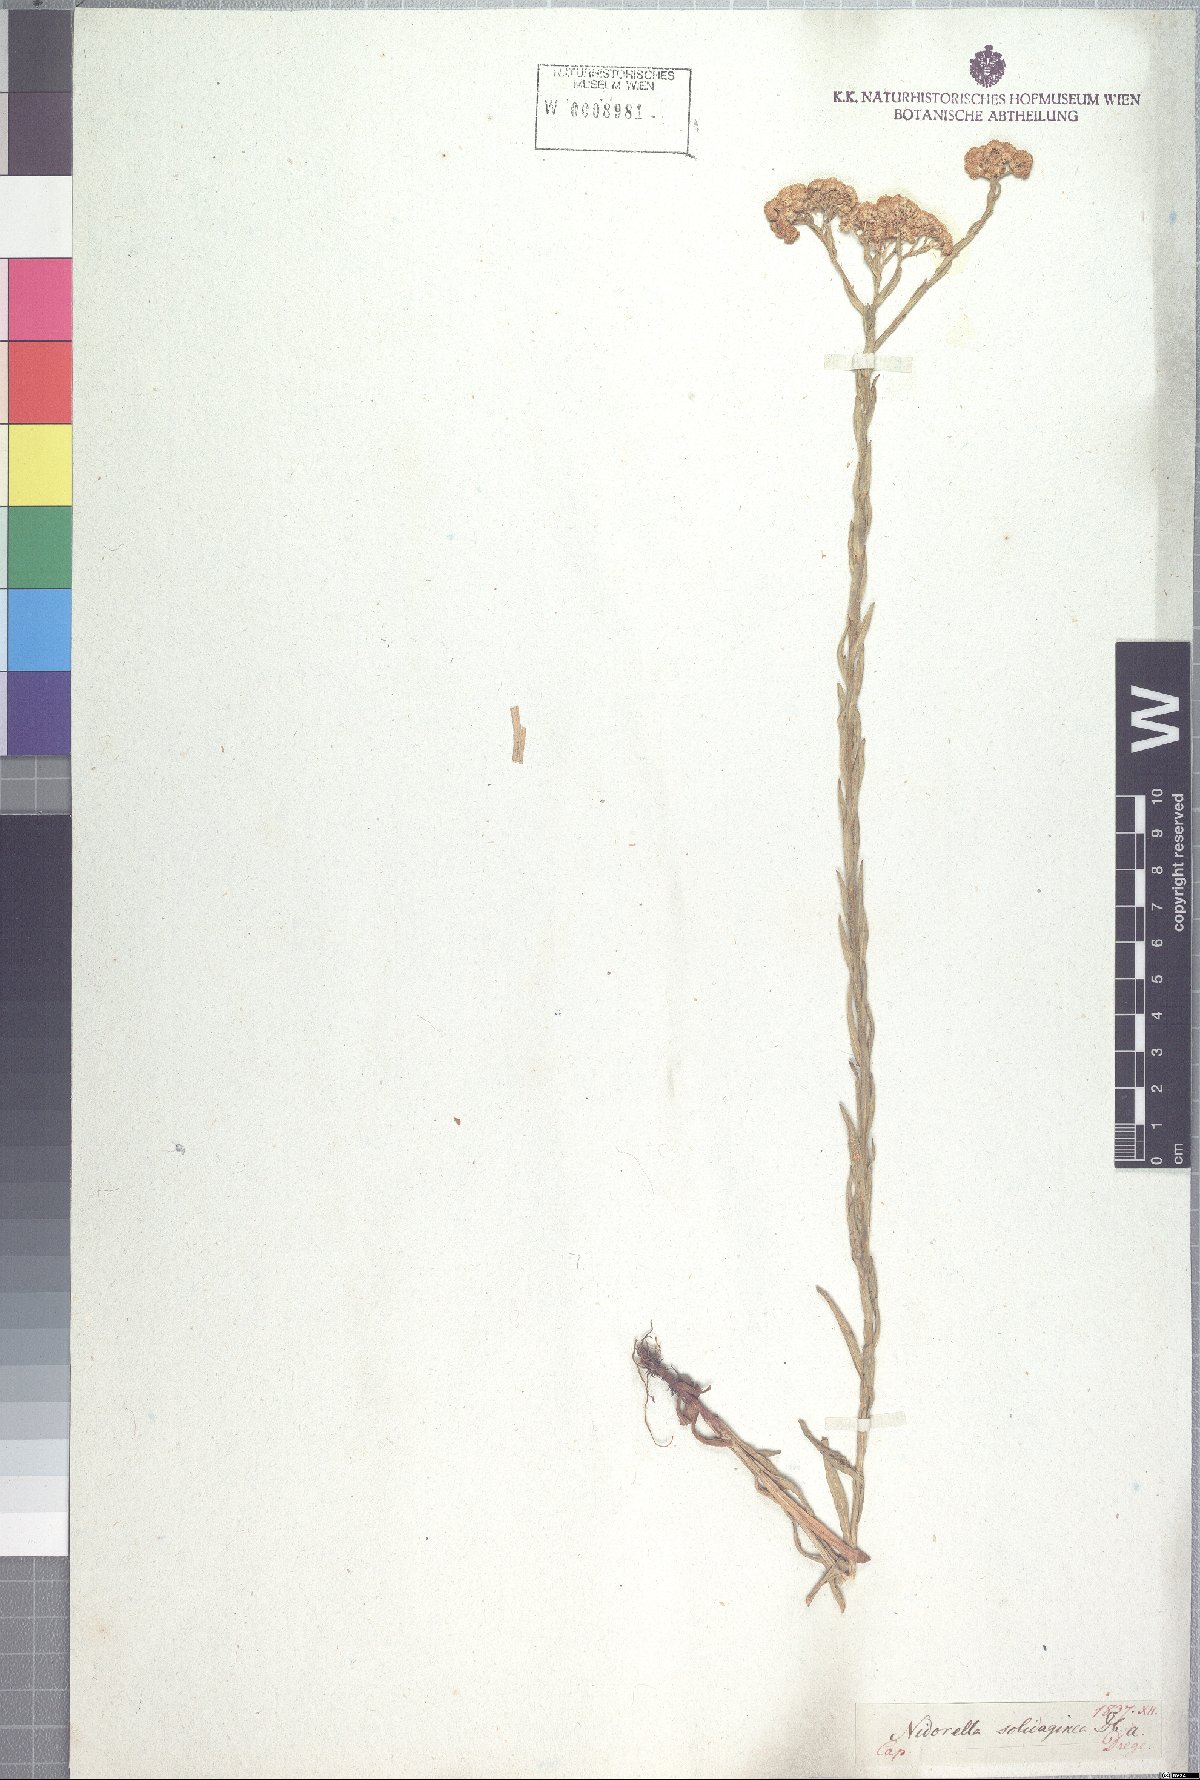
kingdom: Plantae
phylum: Tracheophyta
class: Magnoliopsida
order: Asterales
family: Asteraceae
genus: Nidorella
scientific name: Nidorella resedifolia
